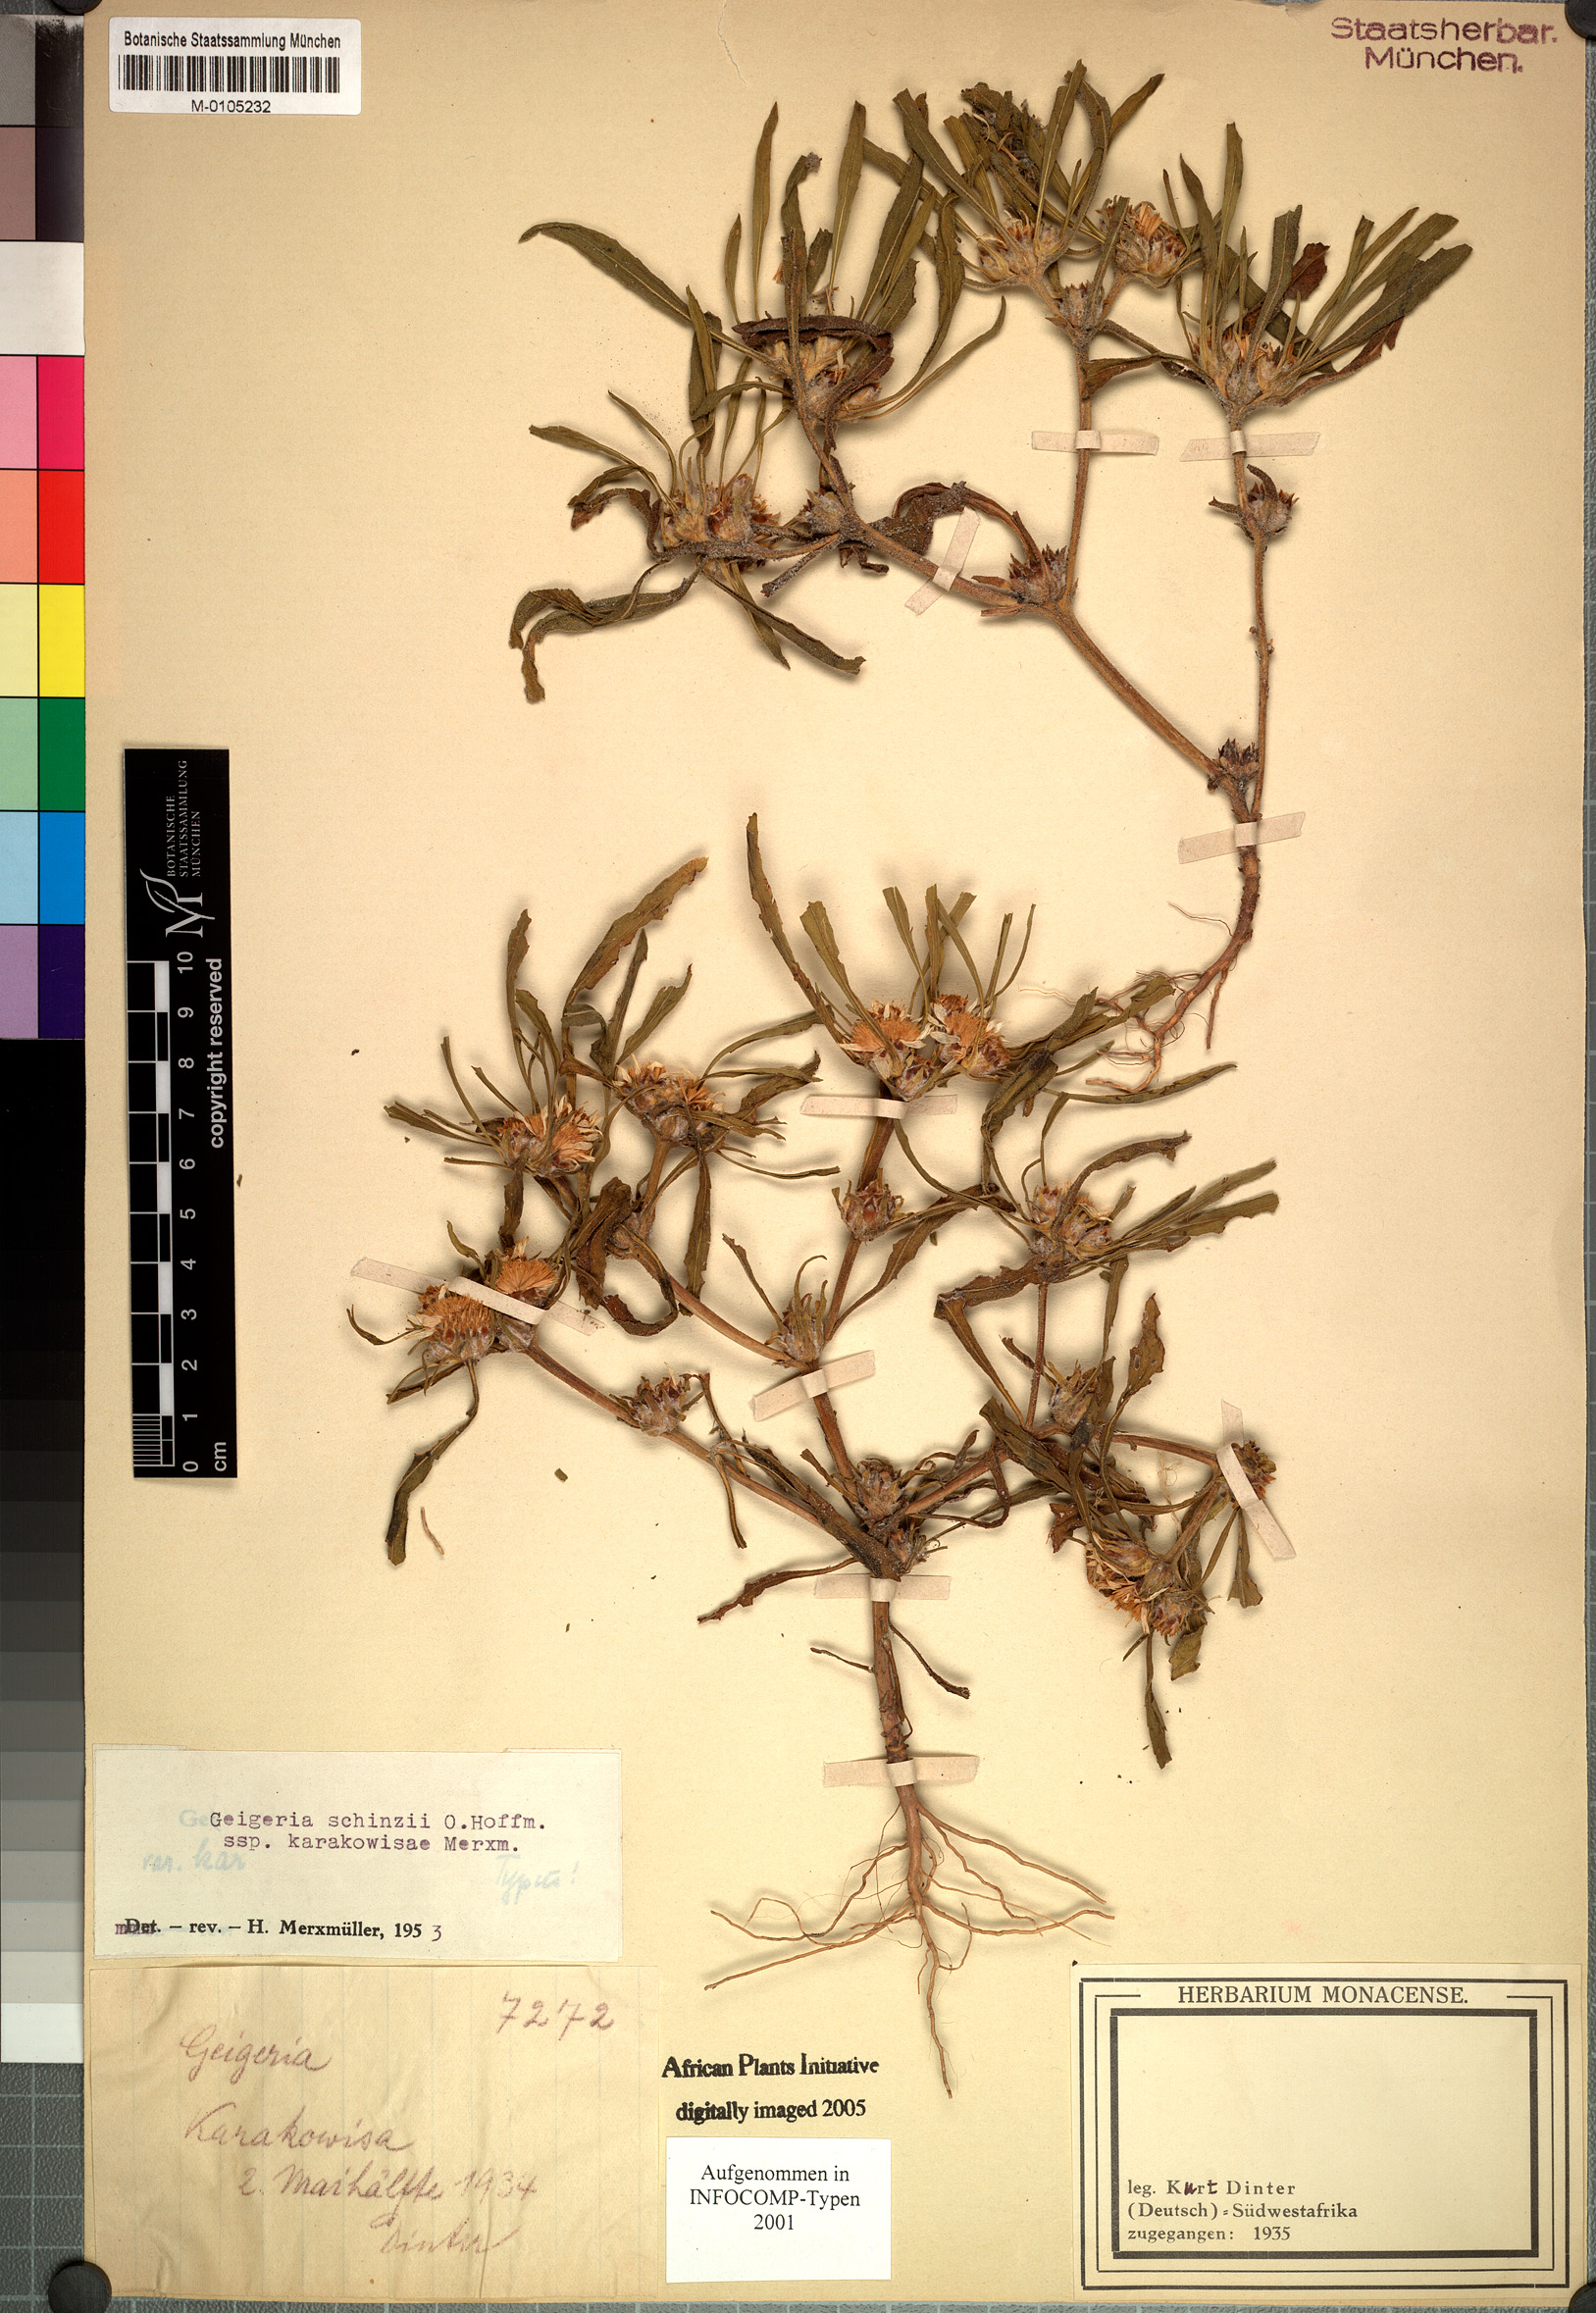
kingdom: Plantae
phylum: Tracheophyta
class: Magnoliopsida
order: Asterales
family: Asteraceae
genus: Geigeria
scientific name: Geigeria schinzii
